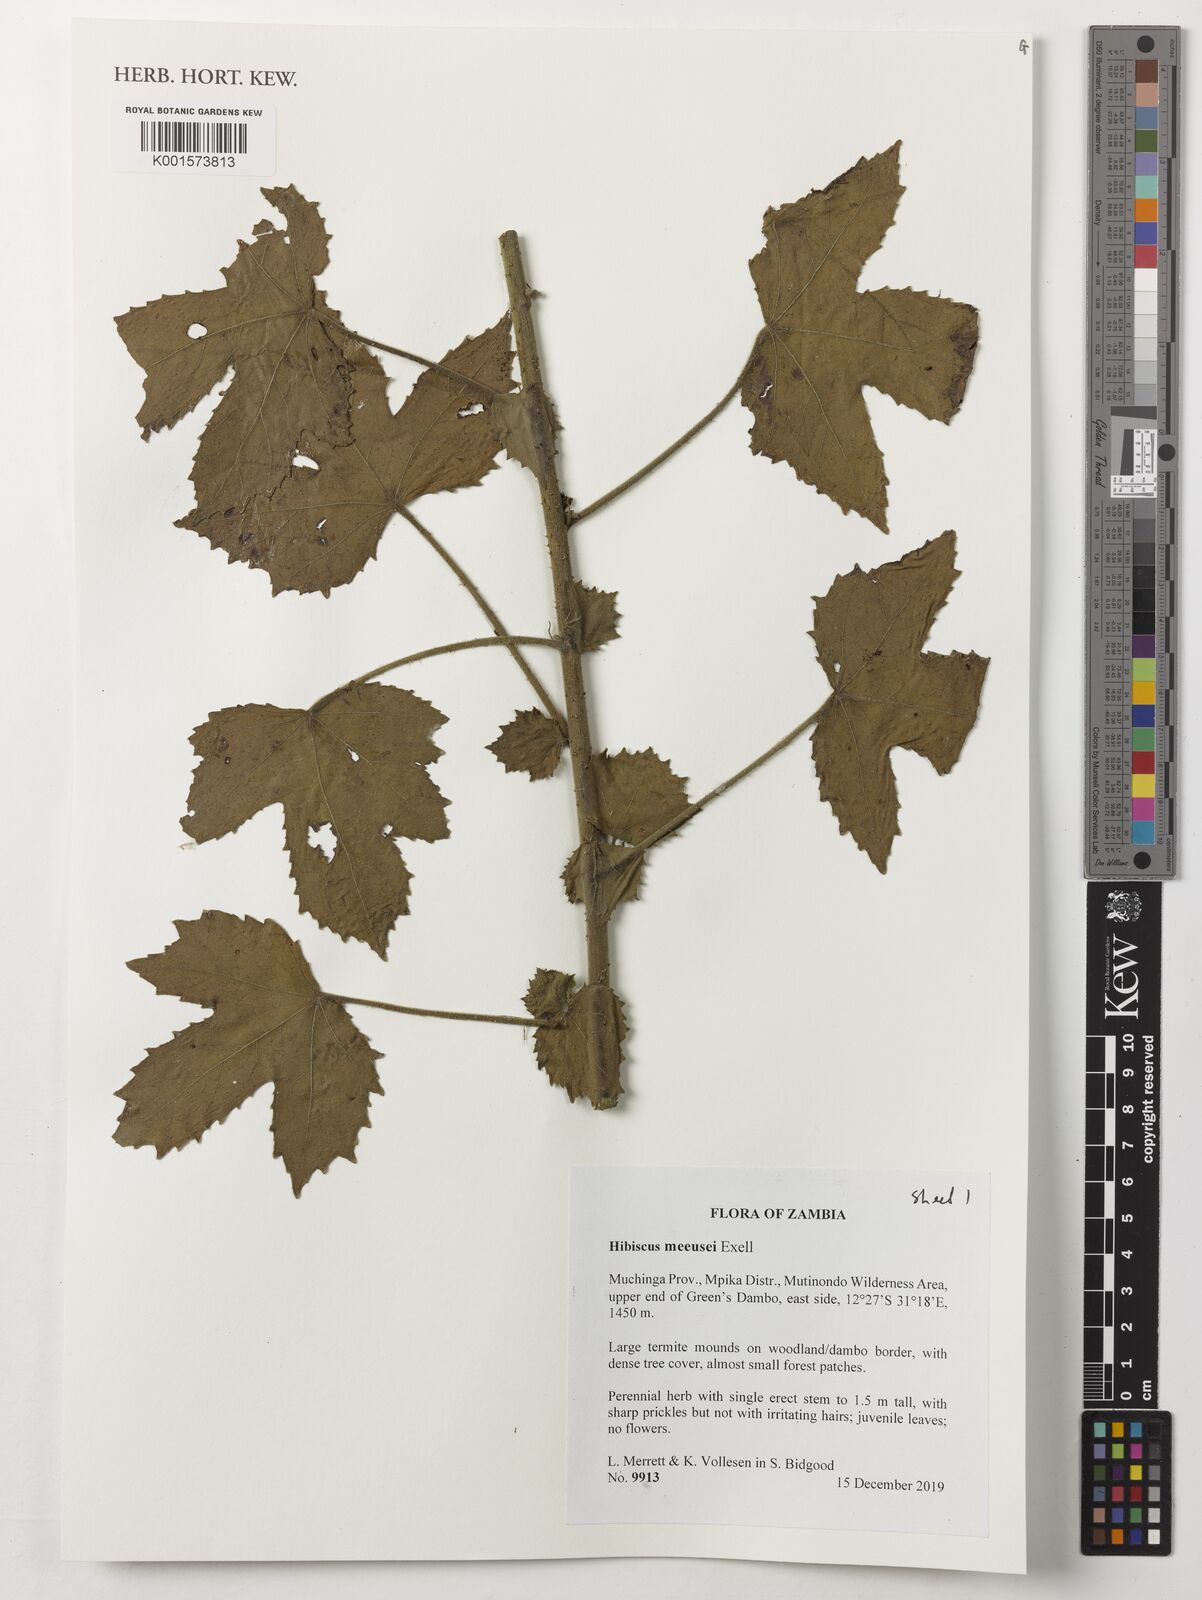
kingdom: Plantae
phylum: Tracheophyta
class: Magnoliopsida
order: Malvales
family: Malvaceae
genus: Hibiscus
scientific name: Hibiscus nigricaulis
